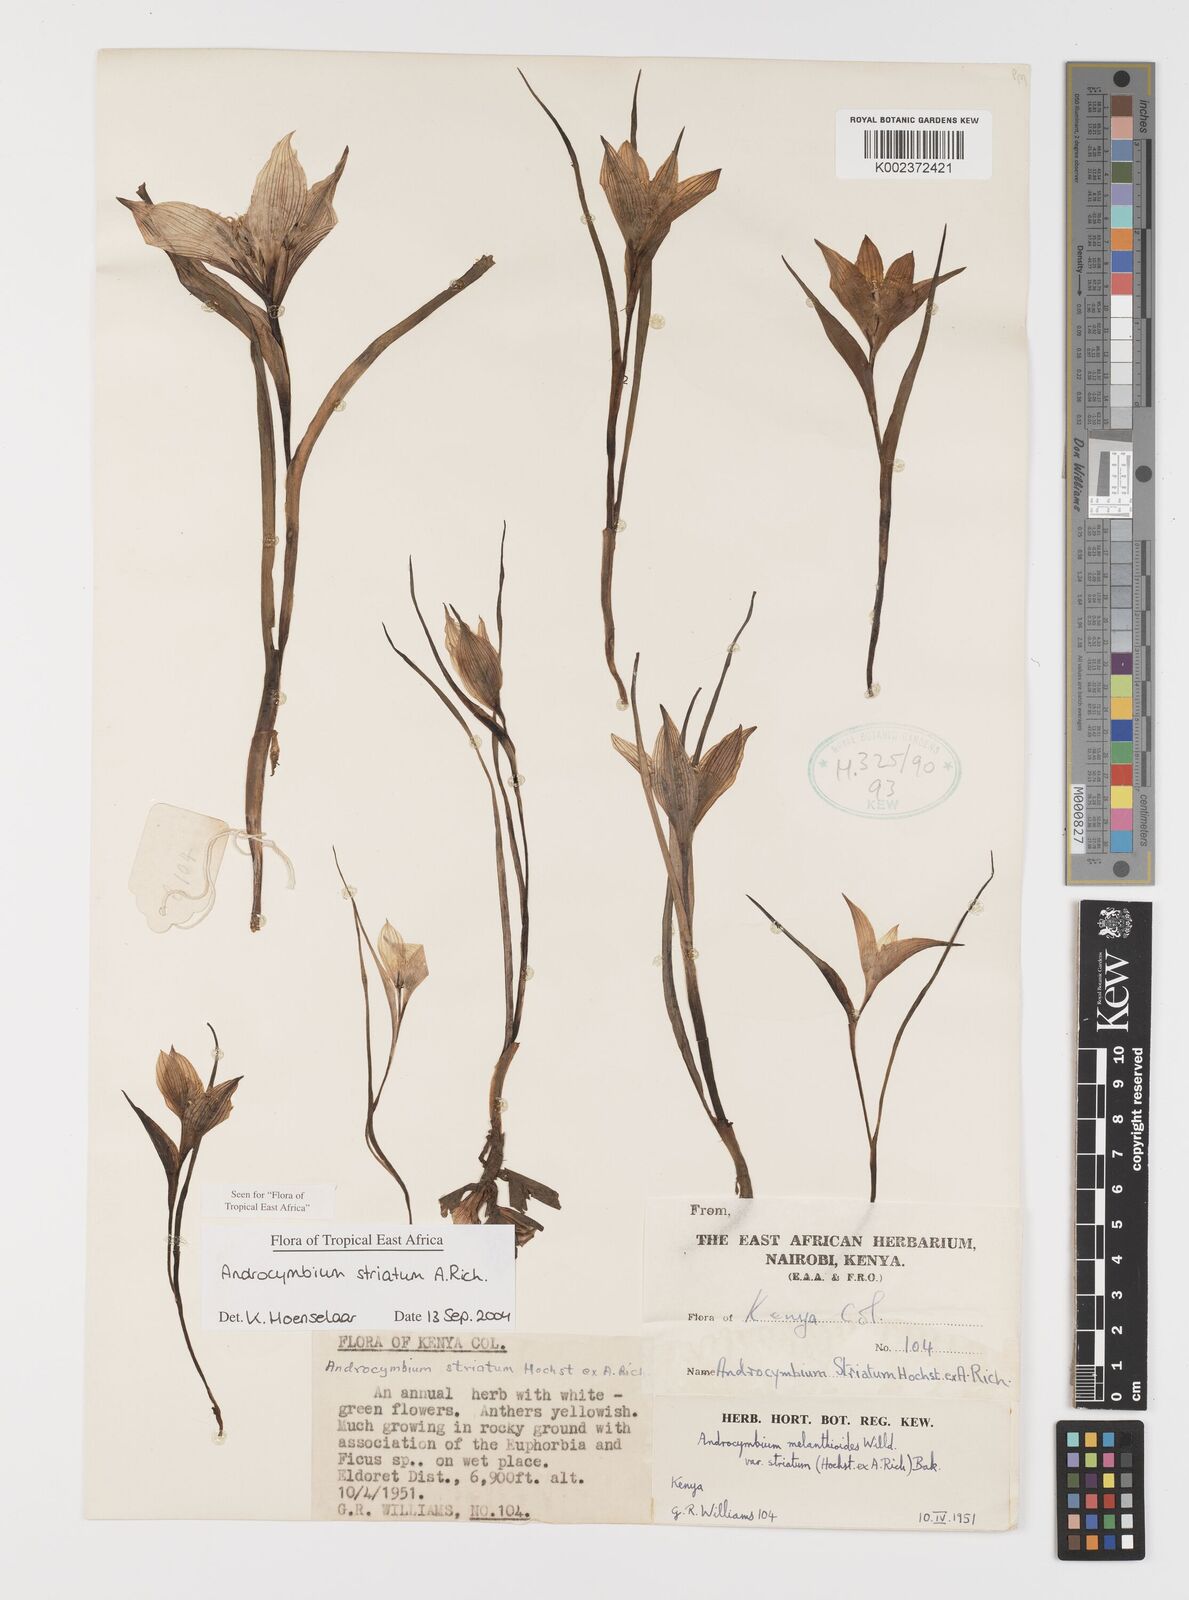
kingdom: Plantae
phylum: Tracheophyta
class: Liliopsida
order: Liliales
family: Colchicaceae
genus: Colchicum
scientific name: Colchicum striatum
